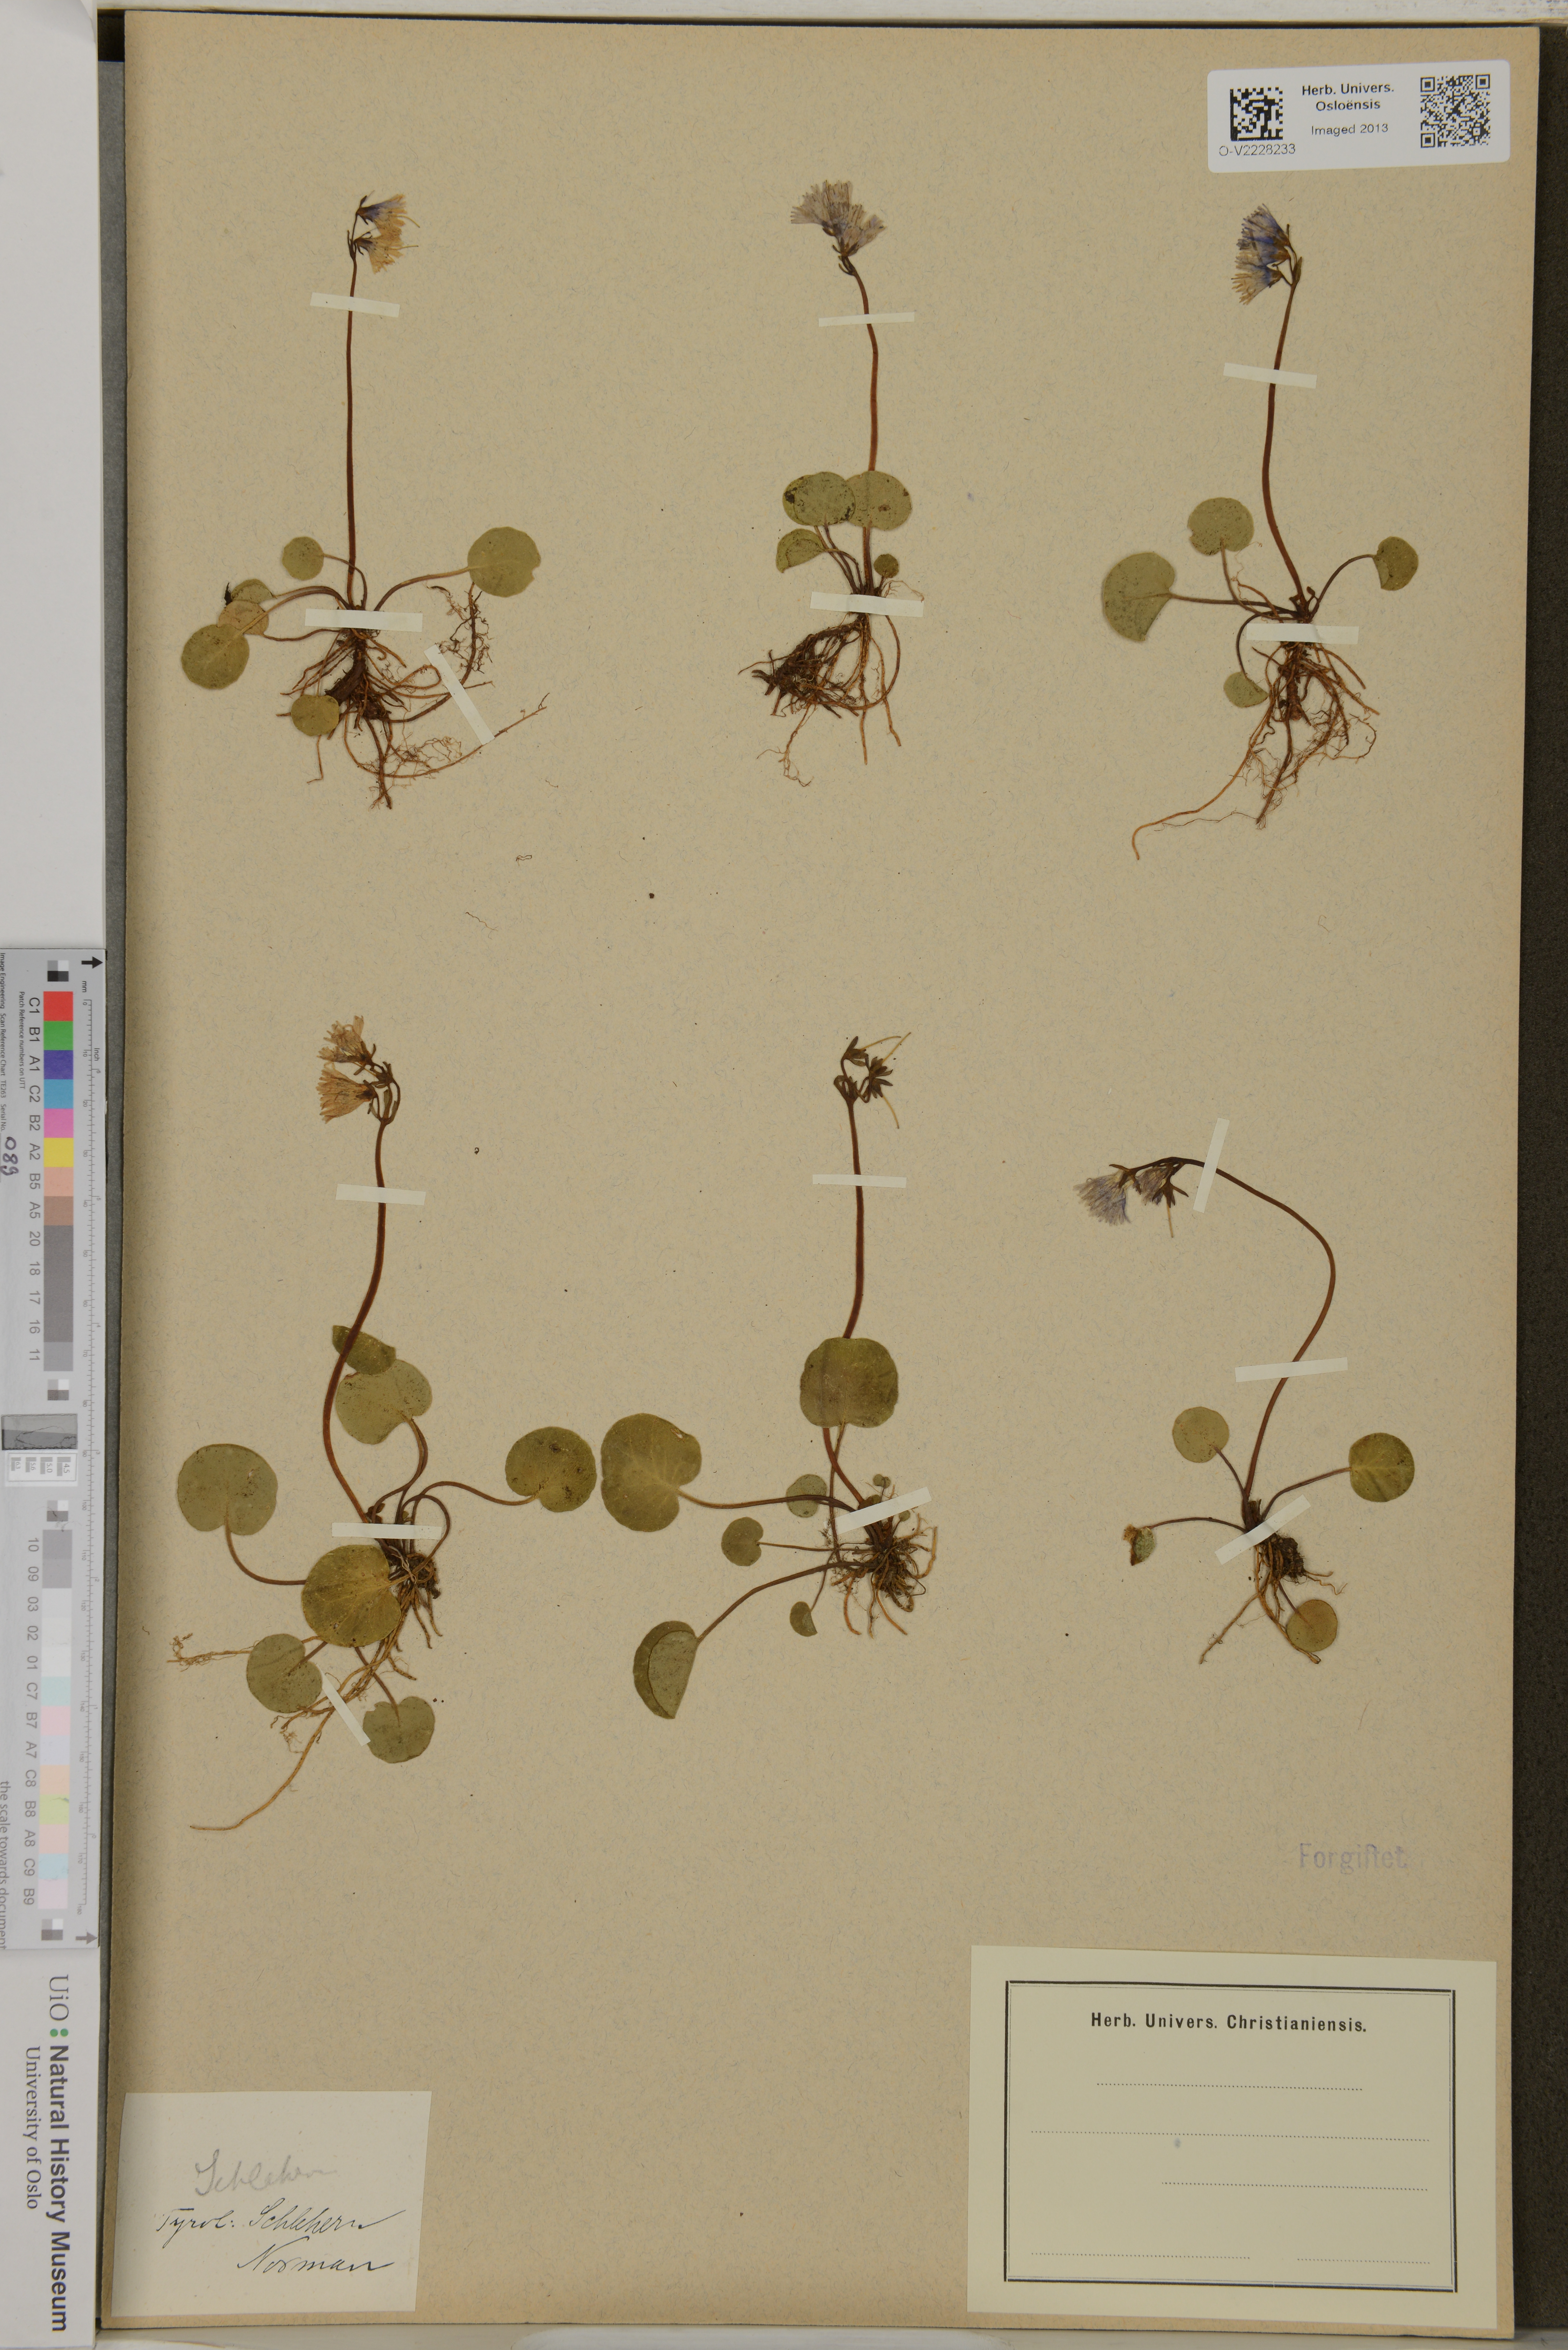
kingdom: Plantae
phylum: Tracheophyta
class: Magnoliopsida
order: Ericales
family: Primulaceae
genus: Soldanella
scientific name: Soldanella
